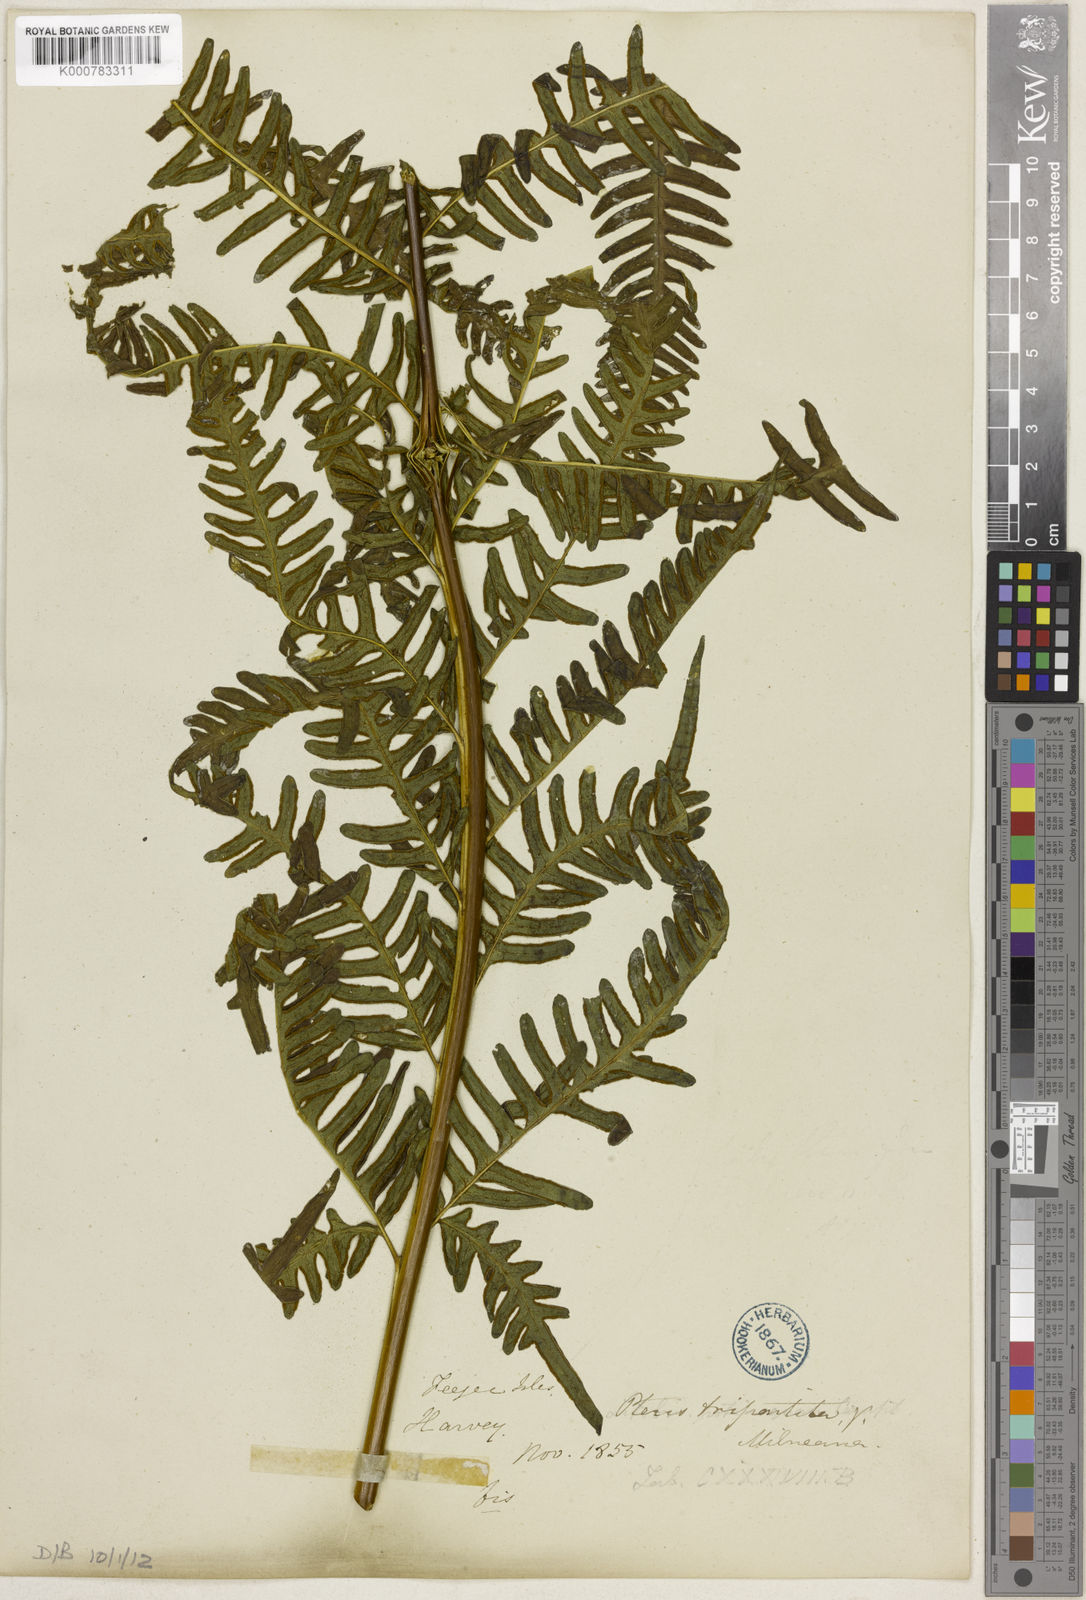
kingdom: Plantae
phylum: Tracheophyta
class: Polypodiopsida
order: Polypodiales
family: Pteridaceae
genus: Pteris
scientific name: Pteris tripartita
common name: Giant brake
